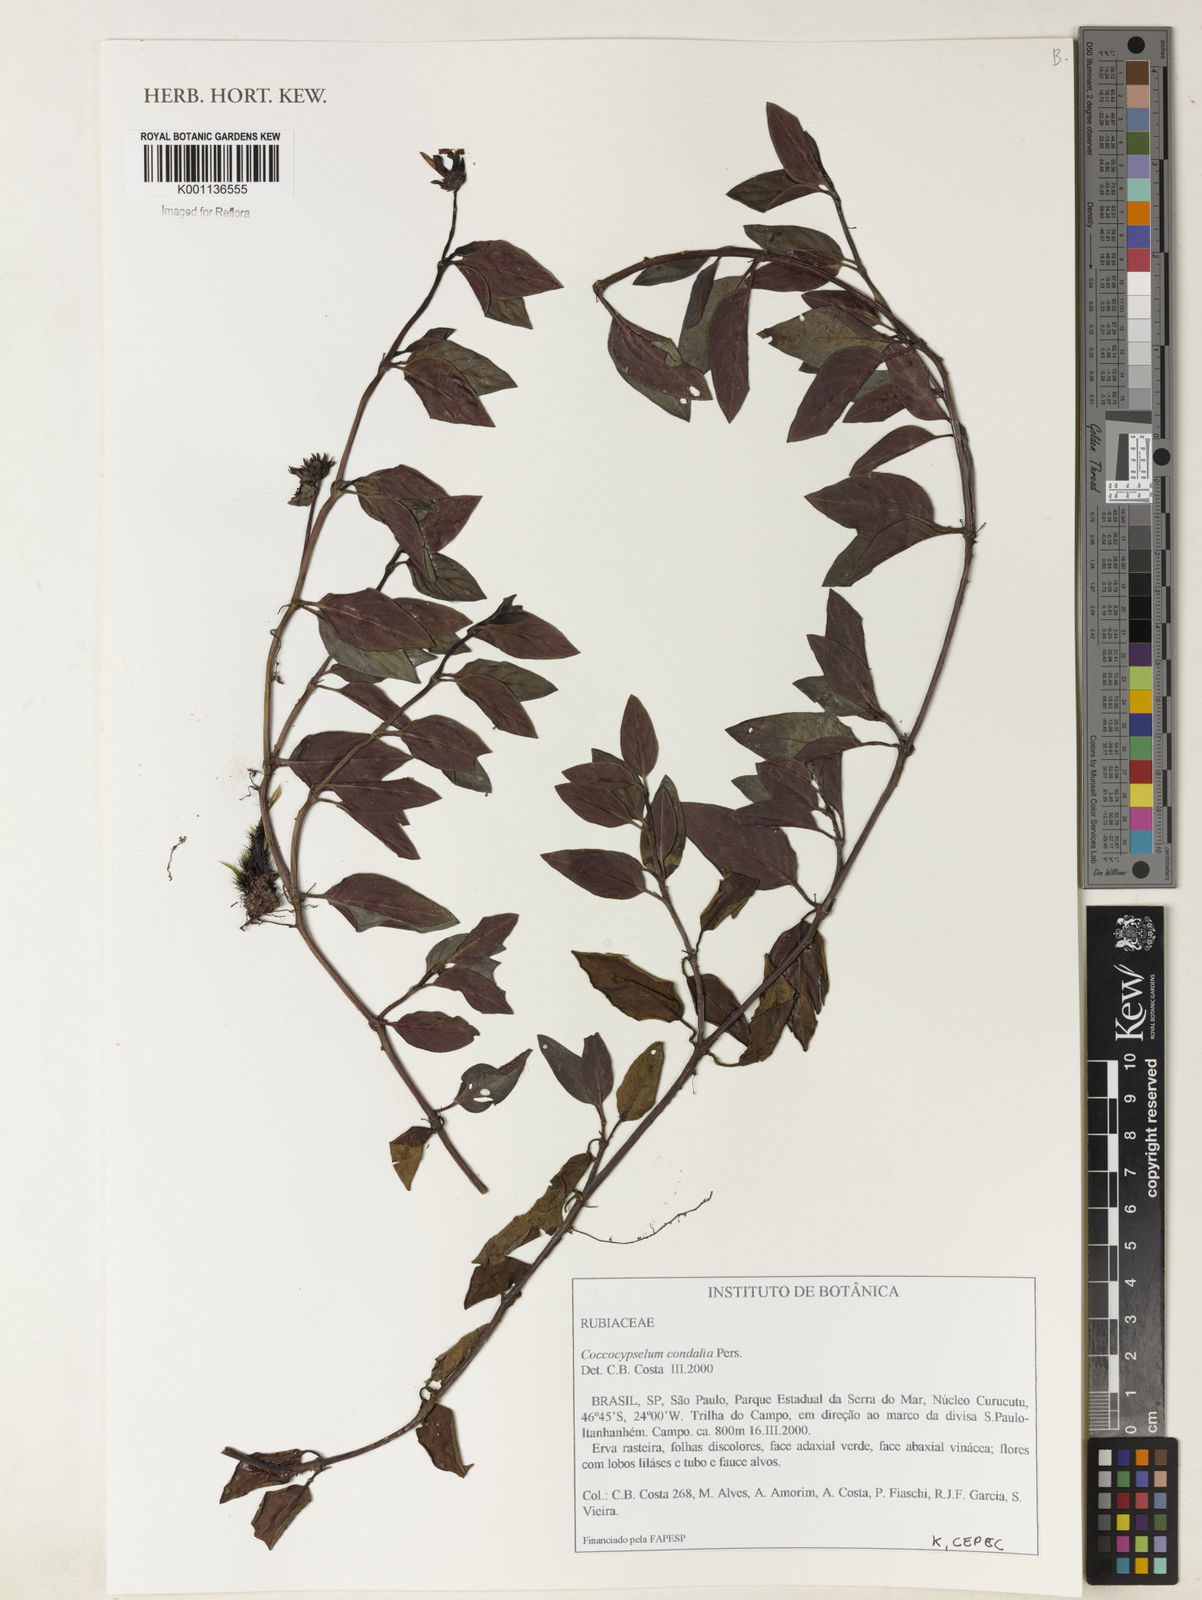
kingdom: Plantae
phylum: Tracheophyta
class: Magnoliopsida
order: Gentianales
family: Rubiaceae
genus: Coccocypselum
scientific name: Coccocypselum condalia
